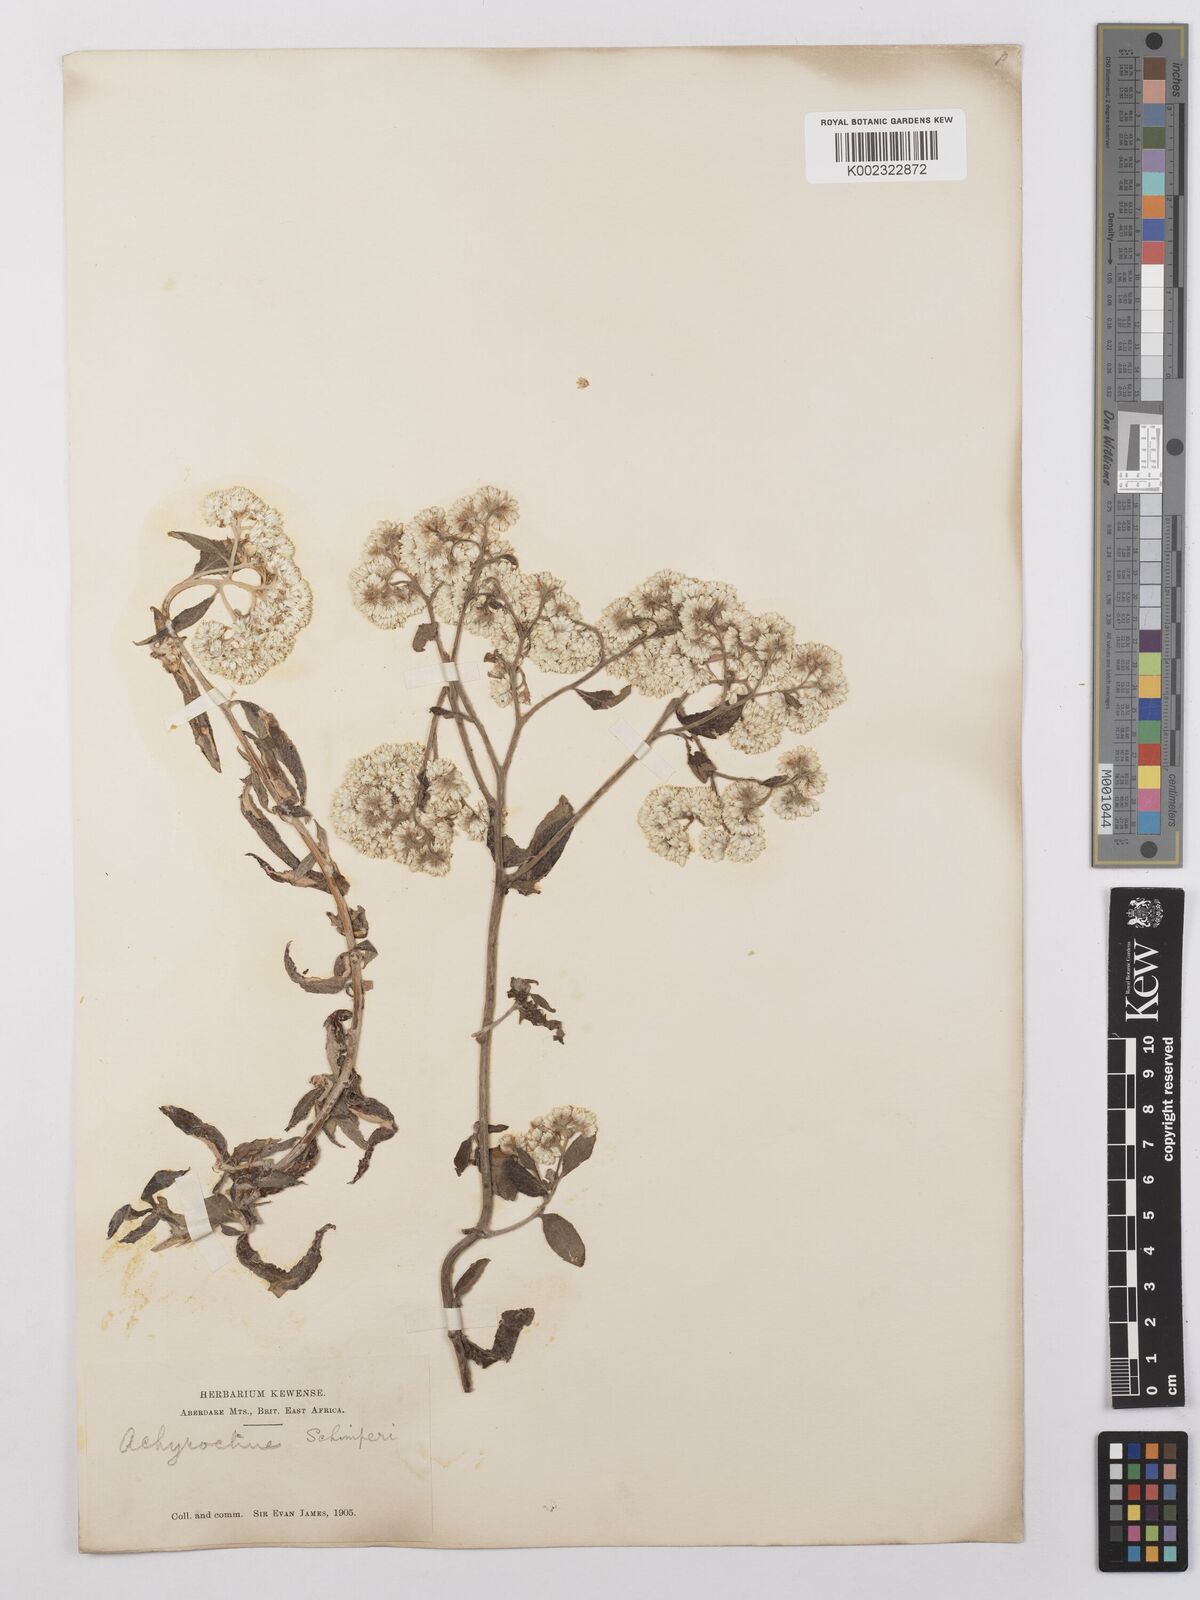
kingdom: Plantae
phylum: Tracheophyta
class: Magnoliopsida
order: Asterales
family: Asteraceae
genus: Helichrysum
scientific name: Helichrysum schimperi
